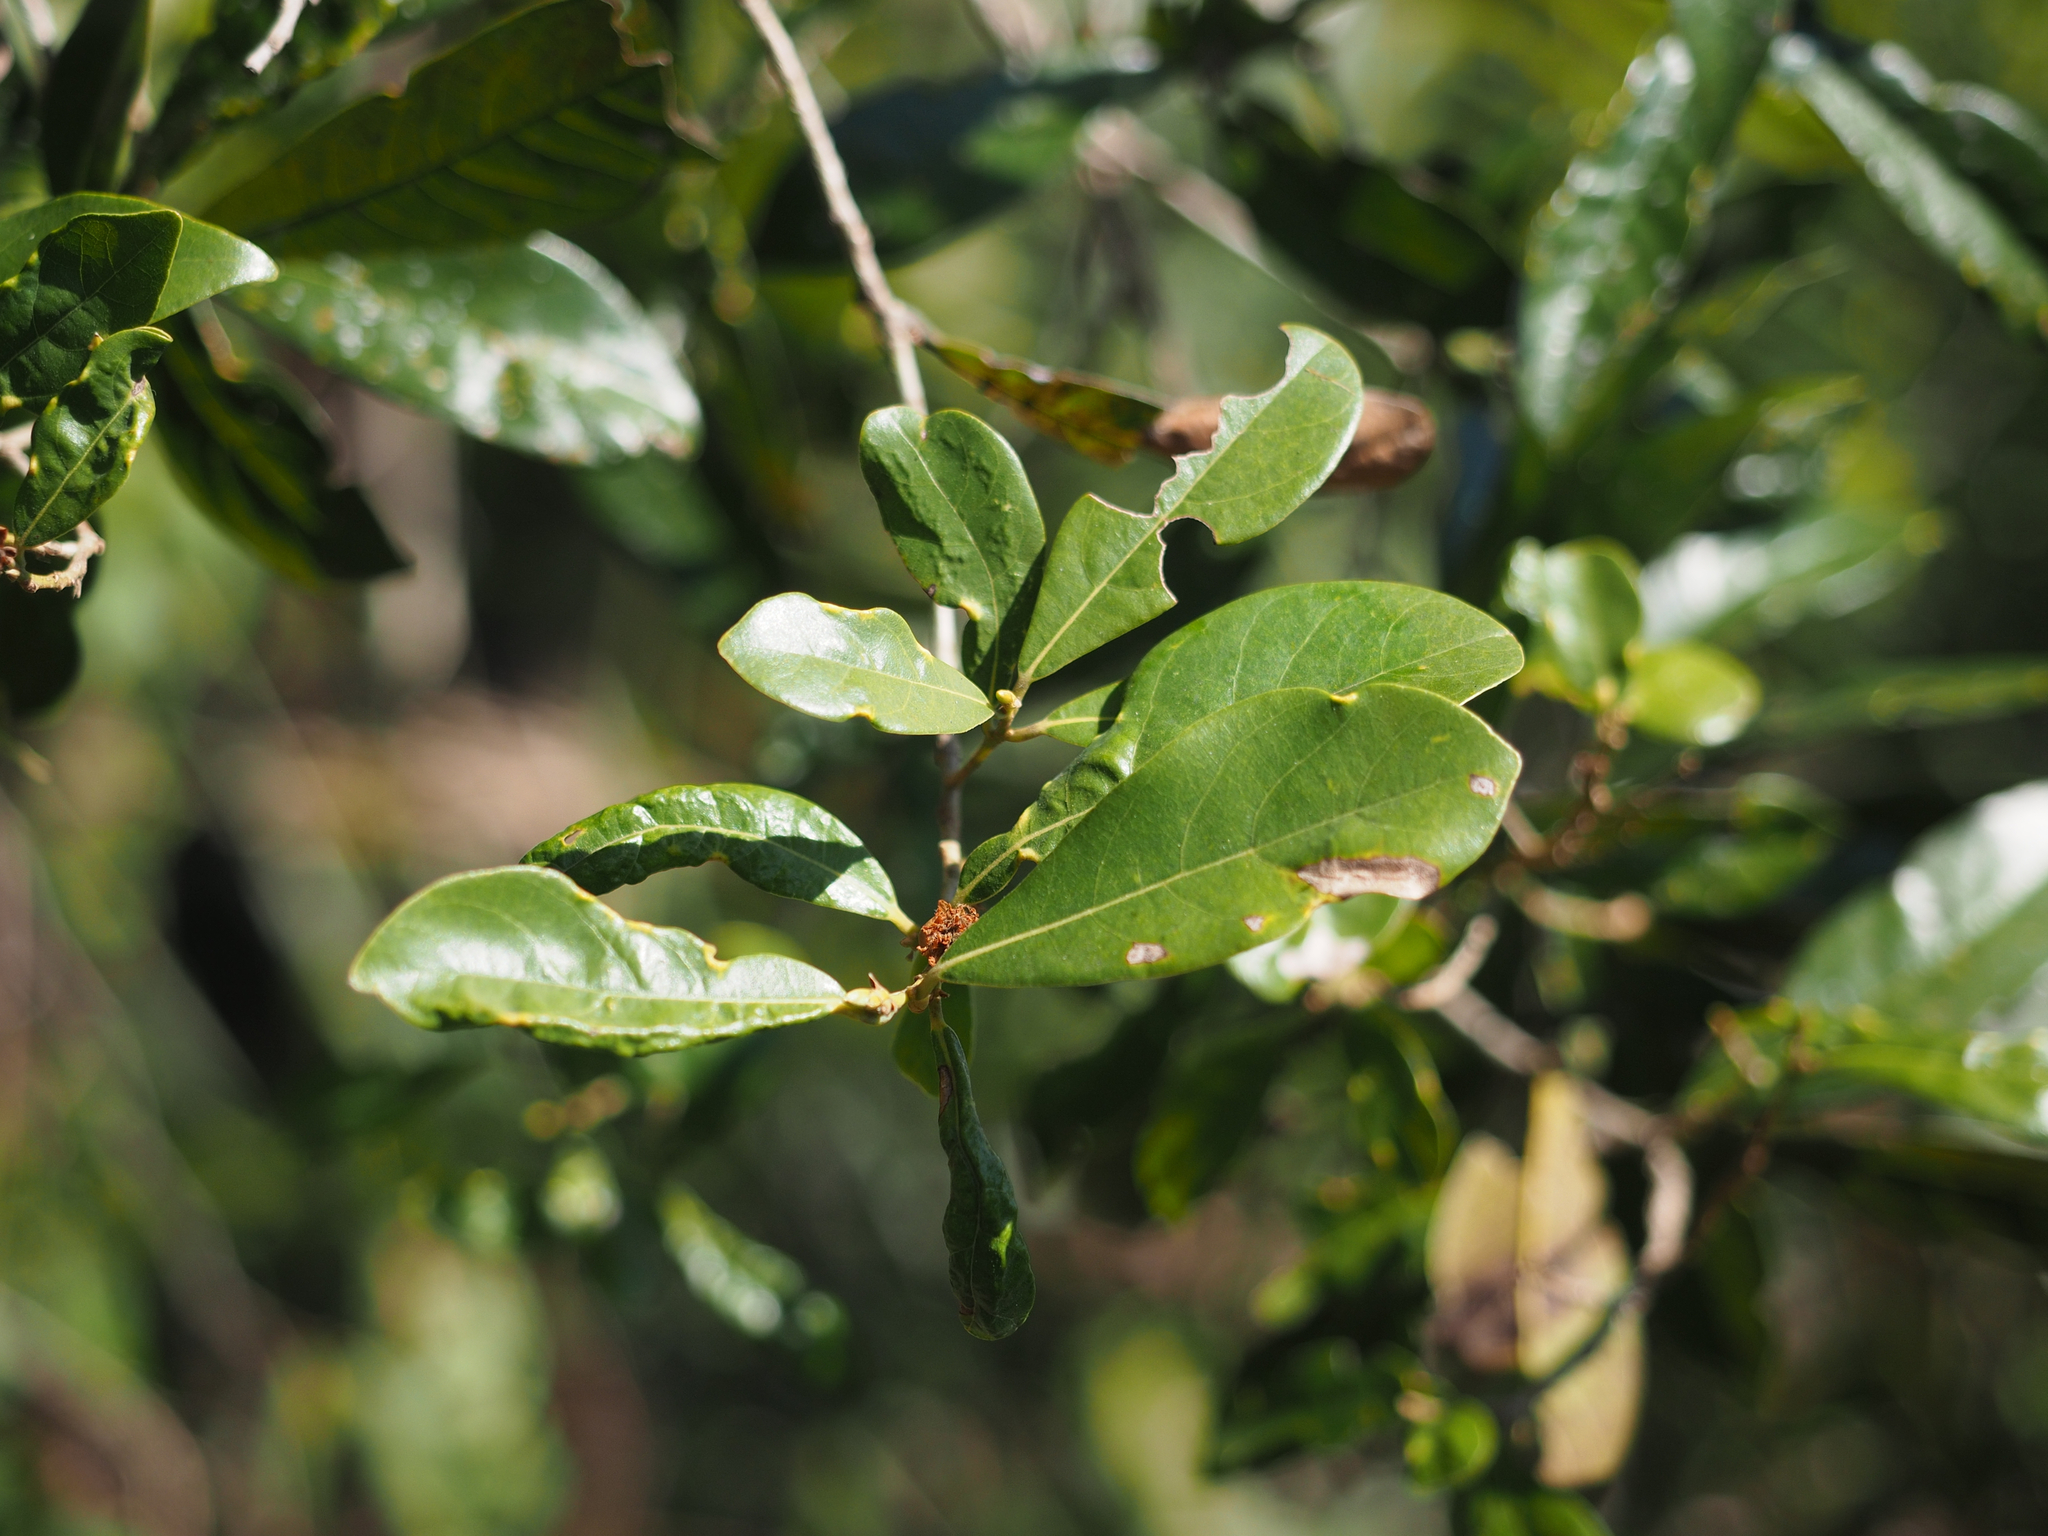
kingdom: Plantae
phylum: Tracheophyta
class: Magnoliopsida
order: Laurales
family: Lauraceae
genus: Litsea
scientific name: Litsea hypophaea
